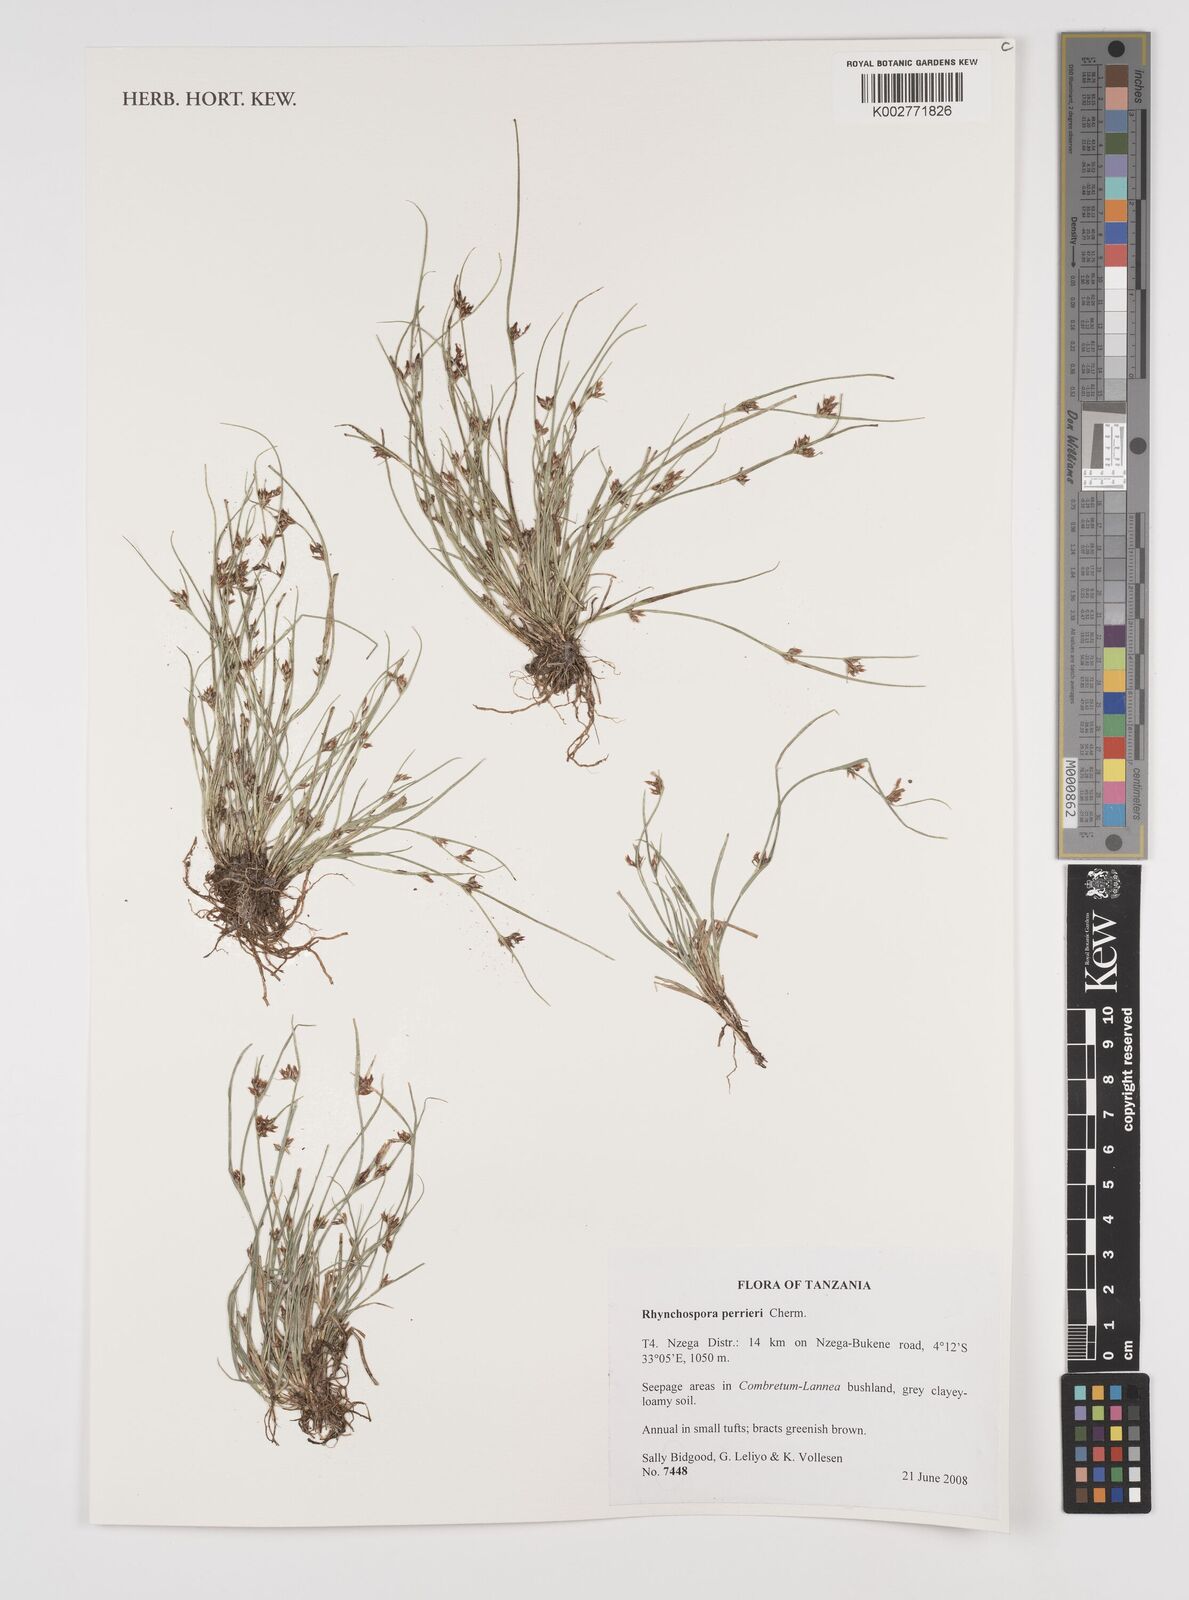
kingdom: Plantae
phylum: Tracheophyta
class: Liliopsida
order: Poales
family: Cyperaceae
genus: Rhynchospora
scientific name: Rhynchospora perrieri
